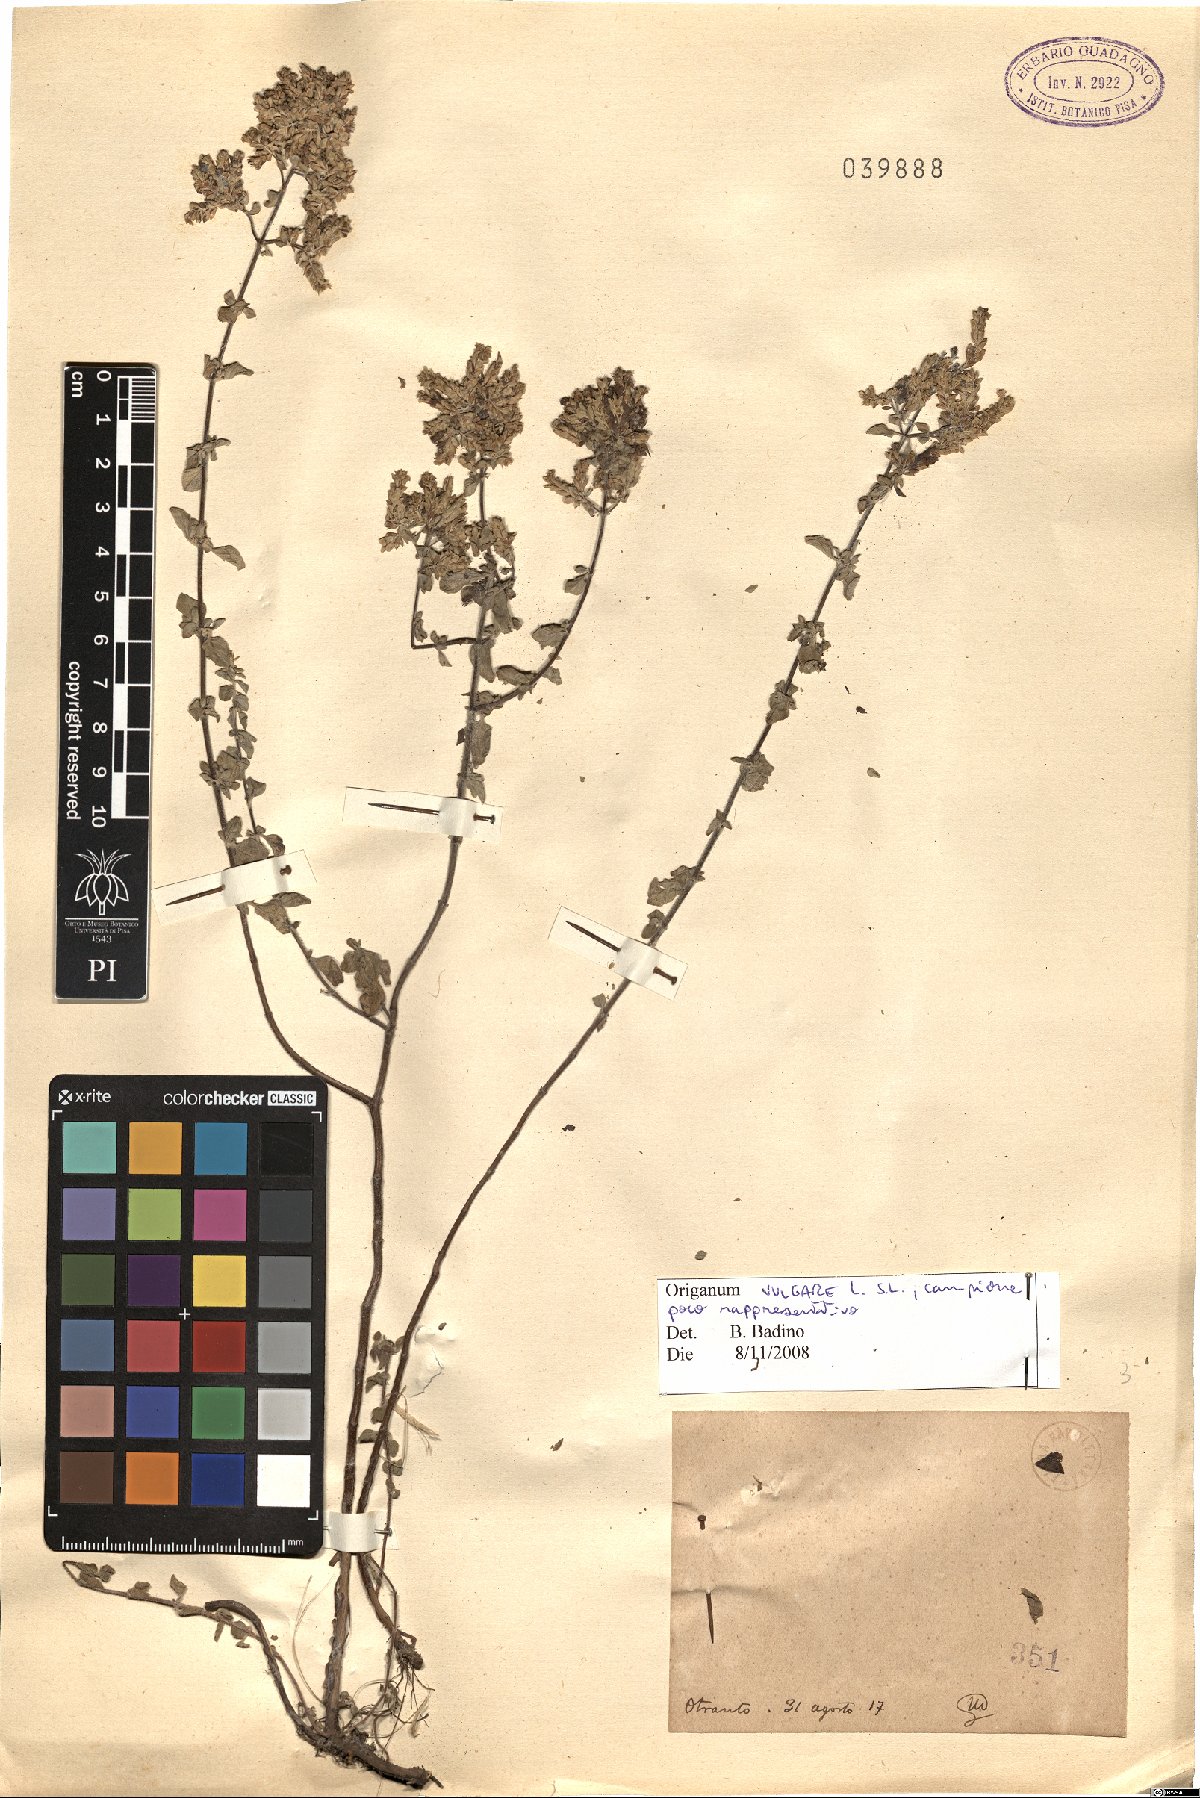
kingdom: Plantae
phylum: Tracheophyta
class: Magnoliopsida
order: Lamiales
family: Lamiaceae
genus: Origanum
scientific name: Origanum vulgare
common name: Wild marjoram
